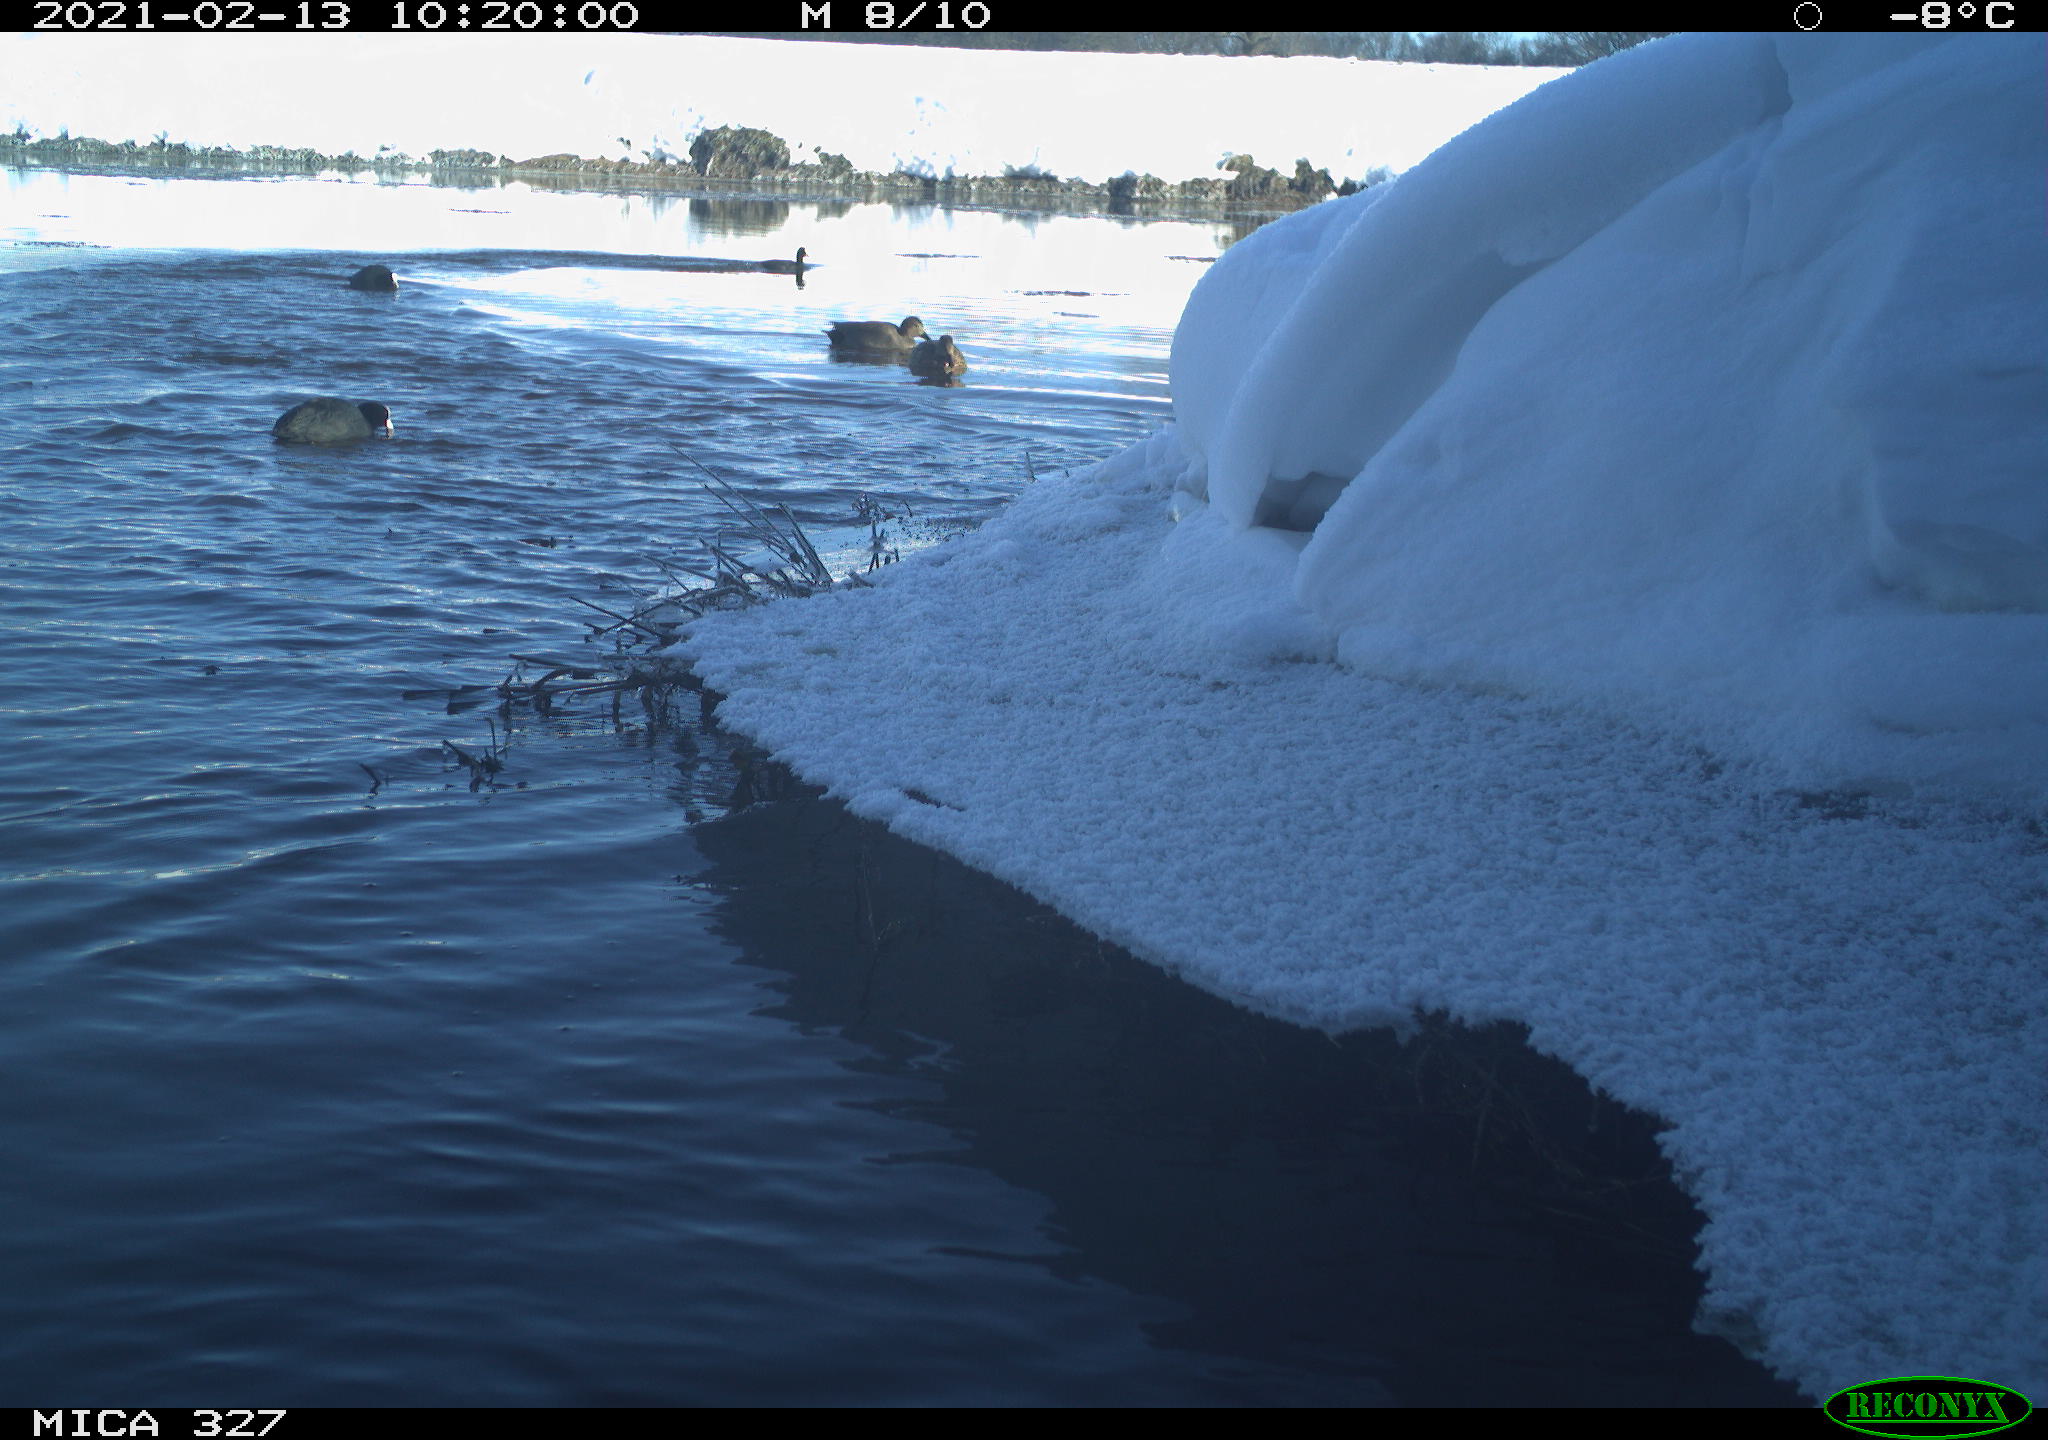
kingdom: Animalia
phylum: Chordata
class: Aves
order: Anseriformes
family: Anatidae
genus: Anas
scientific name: Anas
